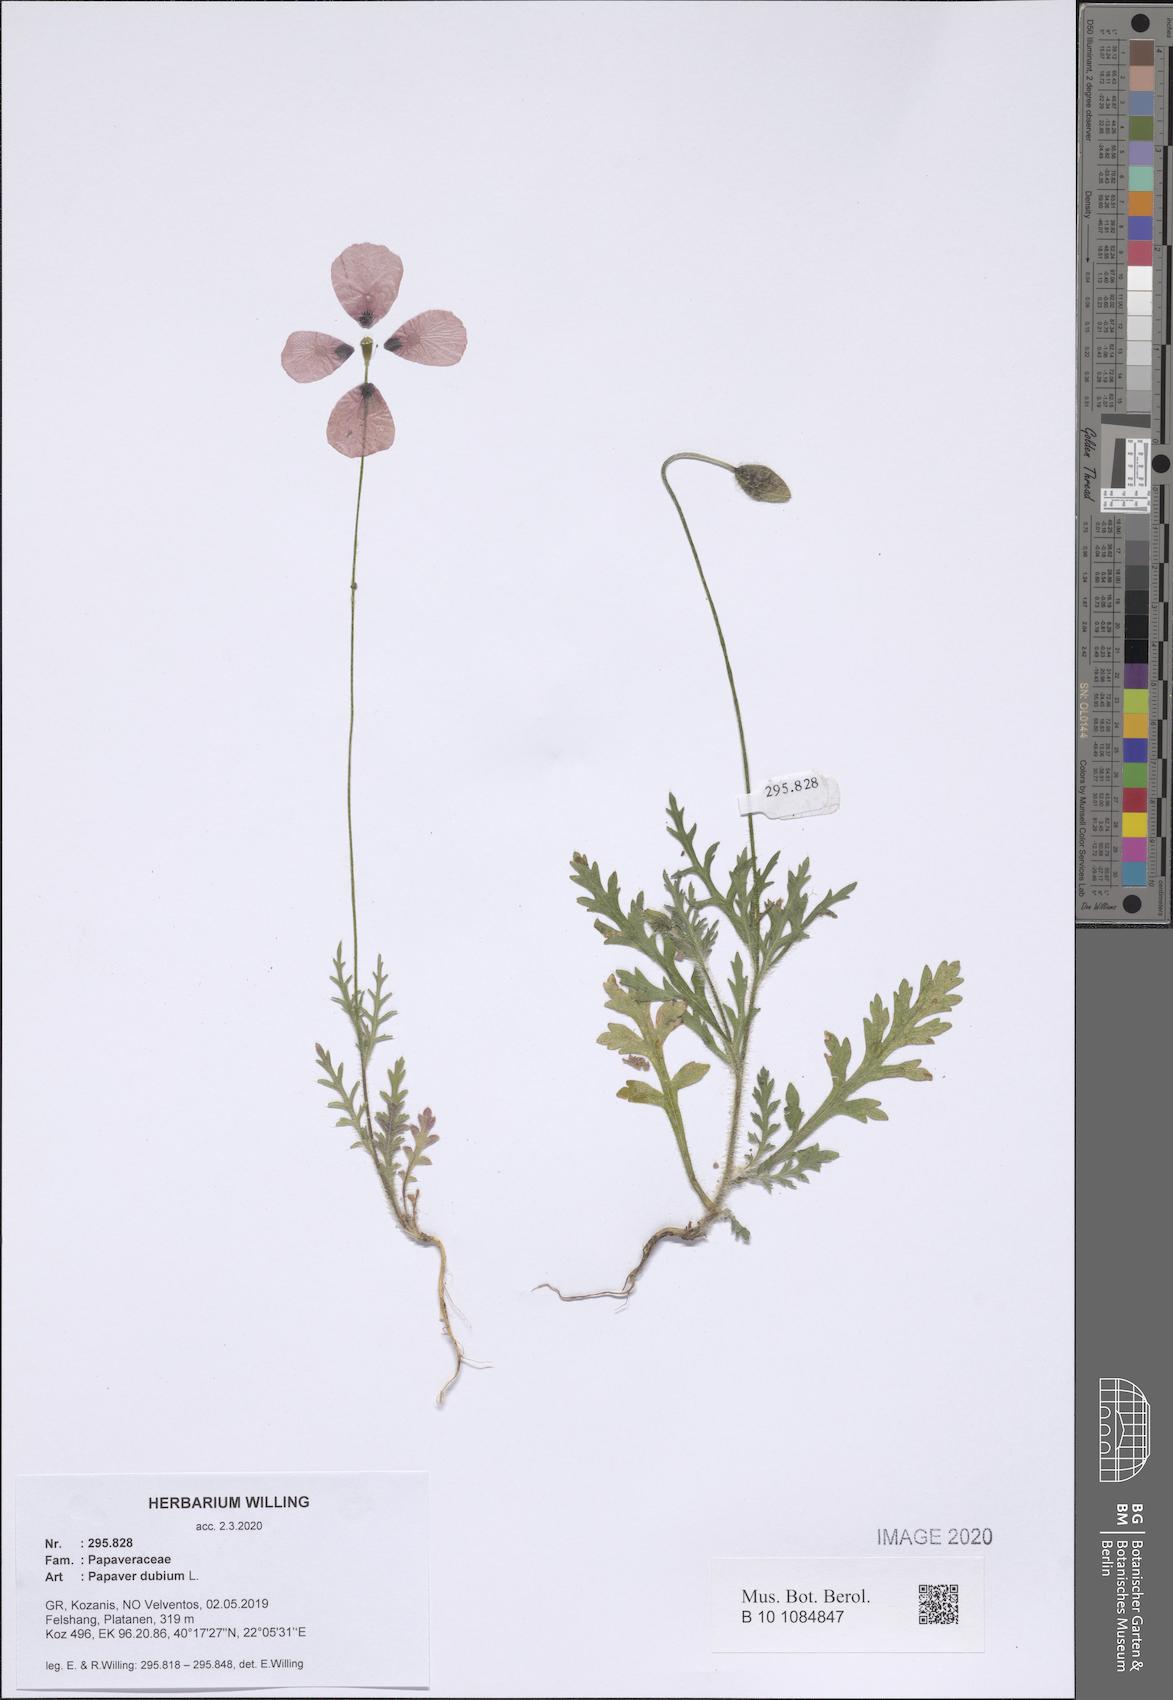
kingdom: Plantae
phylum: Tracheophyta
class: Magnoliopsida
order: Ranunculales
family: Papaveraceae
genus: Papaver
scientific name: Papaver dubium
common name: Long-headed poppy
